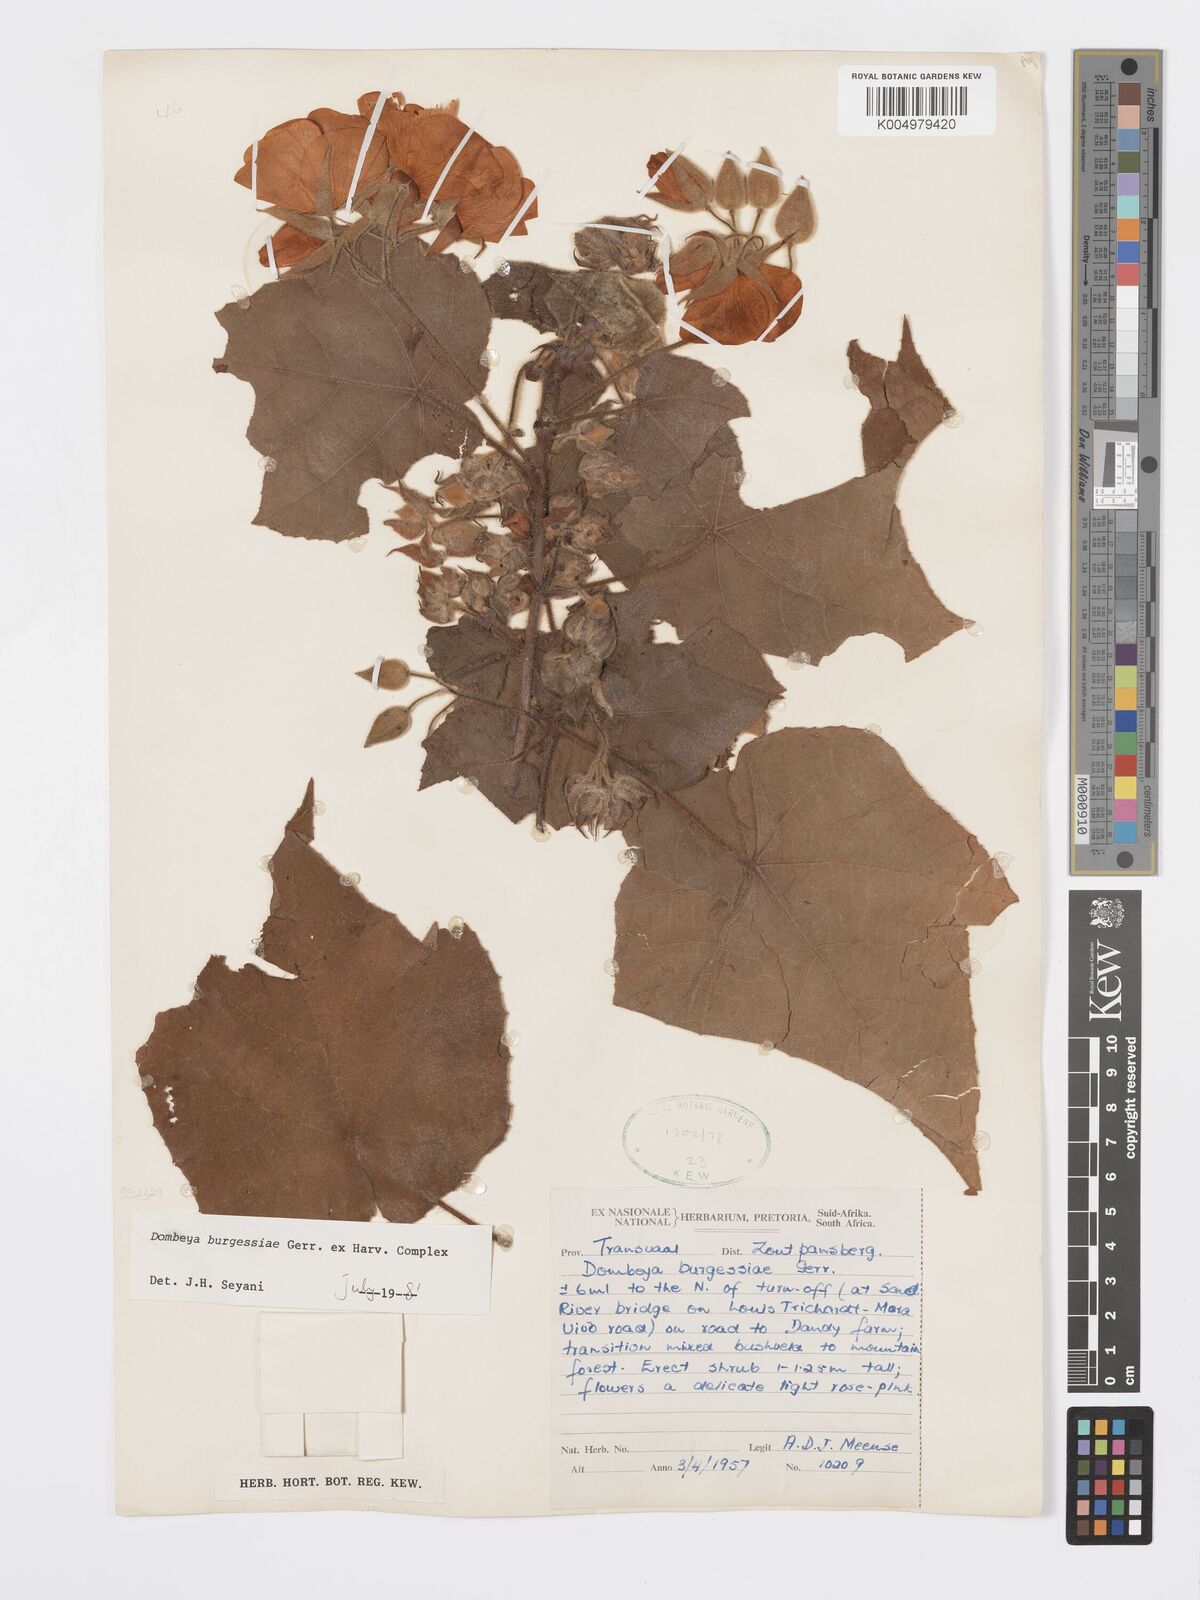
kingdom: Plantae
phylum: Tracheophyta
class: Magnoliopsida
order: Malvales
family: Malvaceae
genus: Dombeya
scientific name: Dombeya burgessiae
